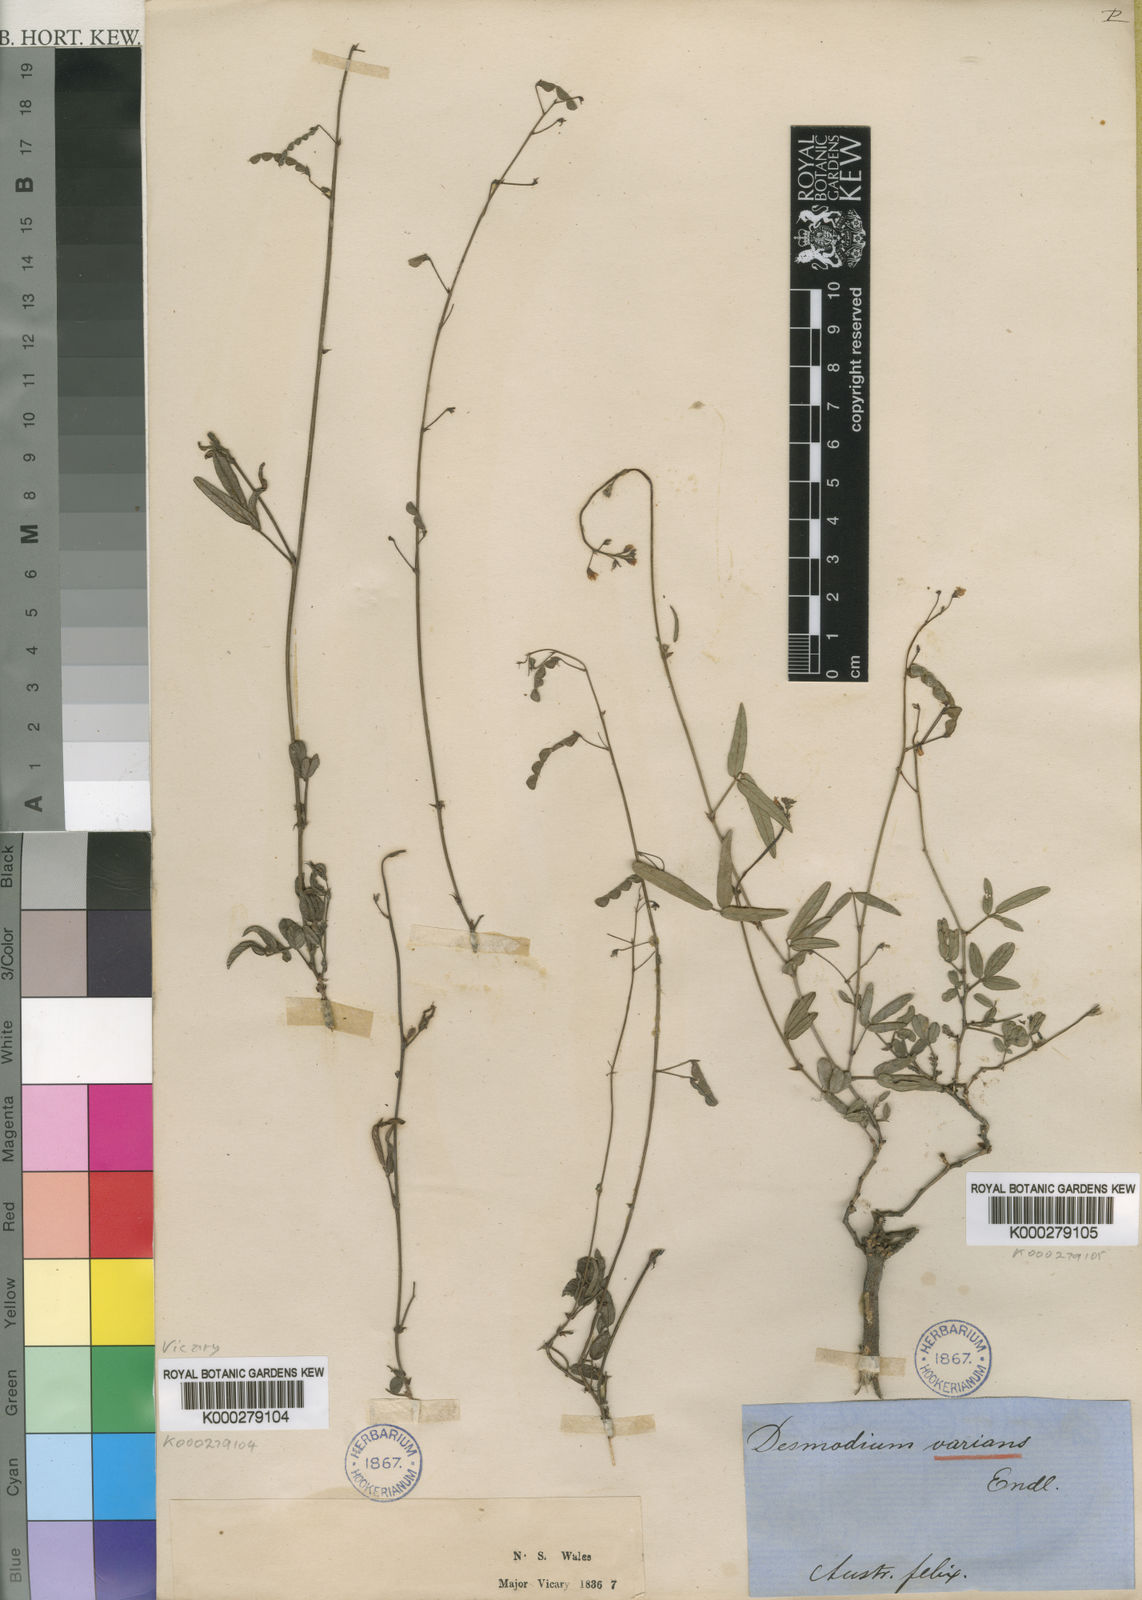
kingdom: Plantae
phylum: Tracheophyta
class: Magnoliopsida
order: Fabales
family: Fabaceae
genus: Grona
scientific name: Grona varians
